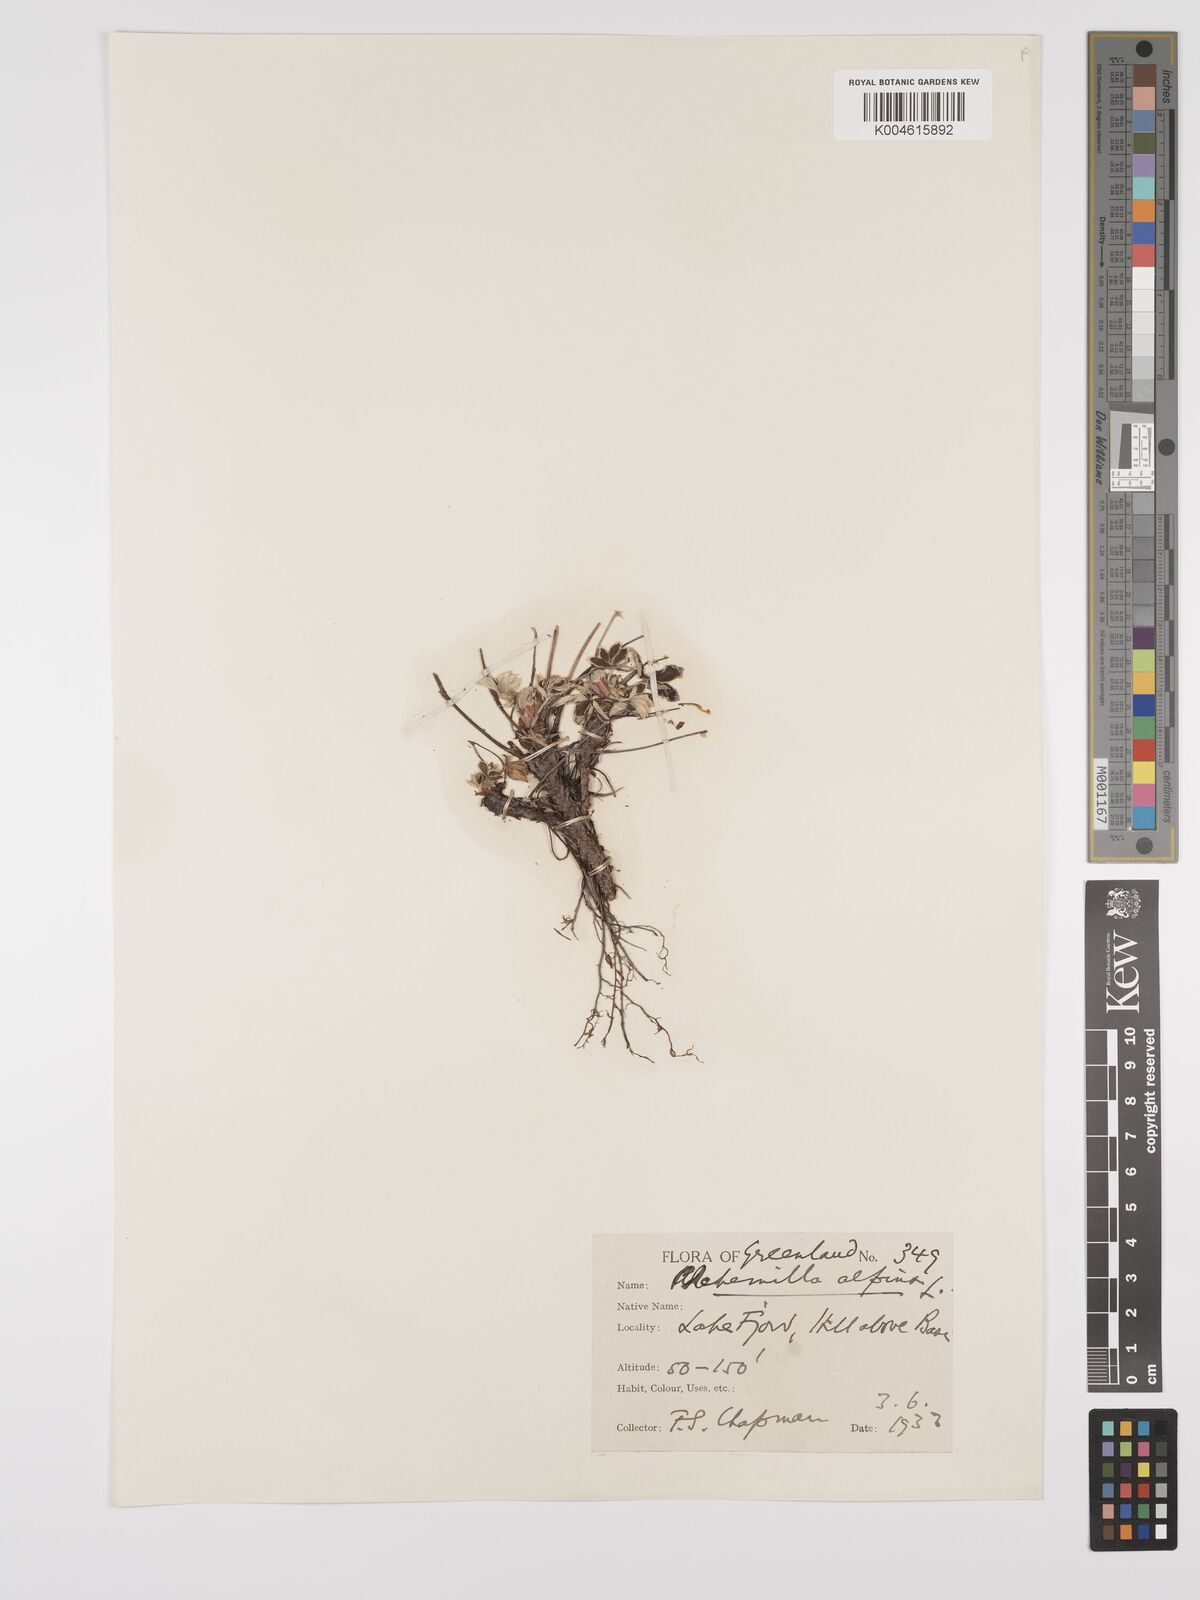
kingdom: Plantae
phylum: Tracheophyta
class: Magnoliopsida
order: Rosales
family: Rosaceae
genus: Alchemilla
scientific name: Alchemilla alpina
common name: Alpine lady's-mantle
